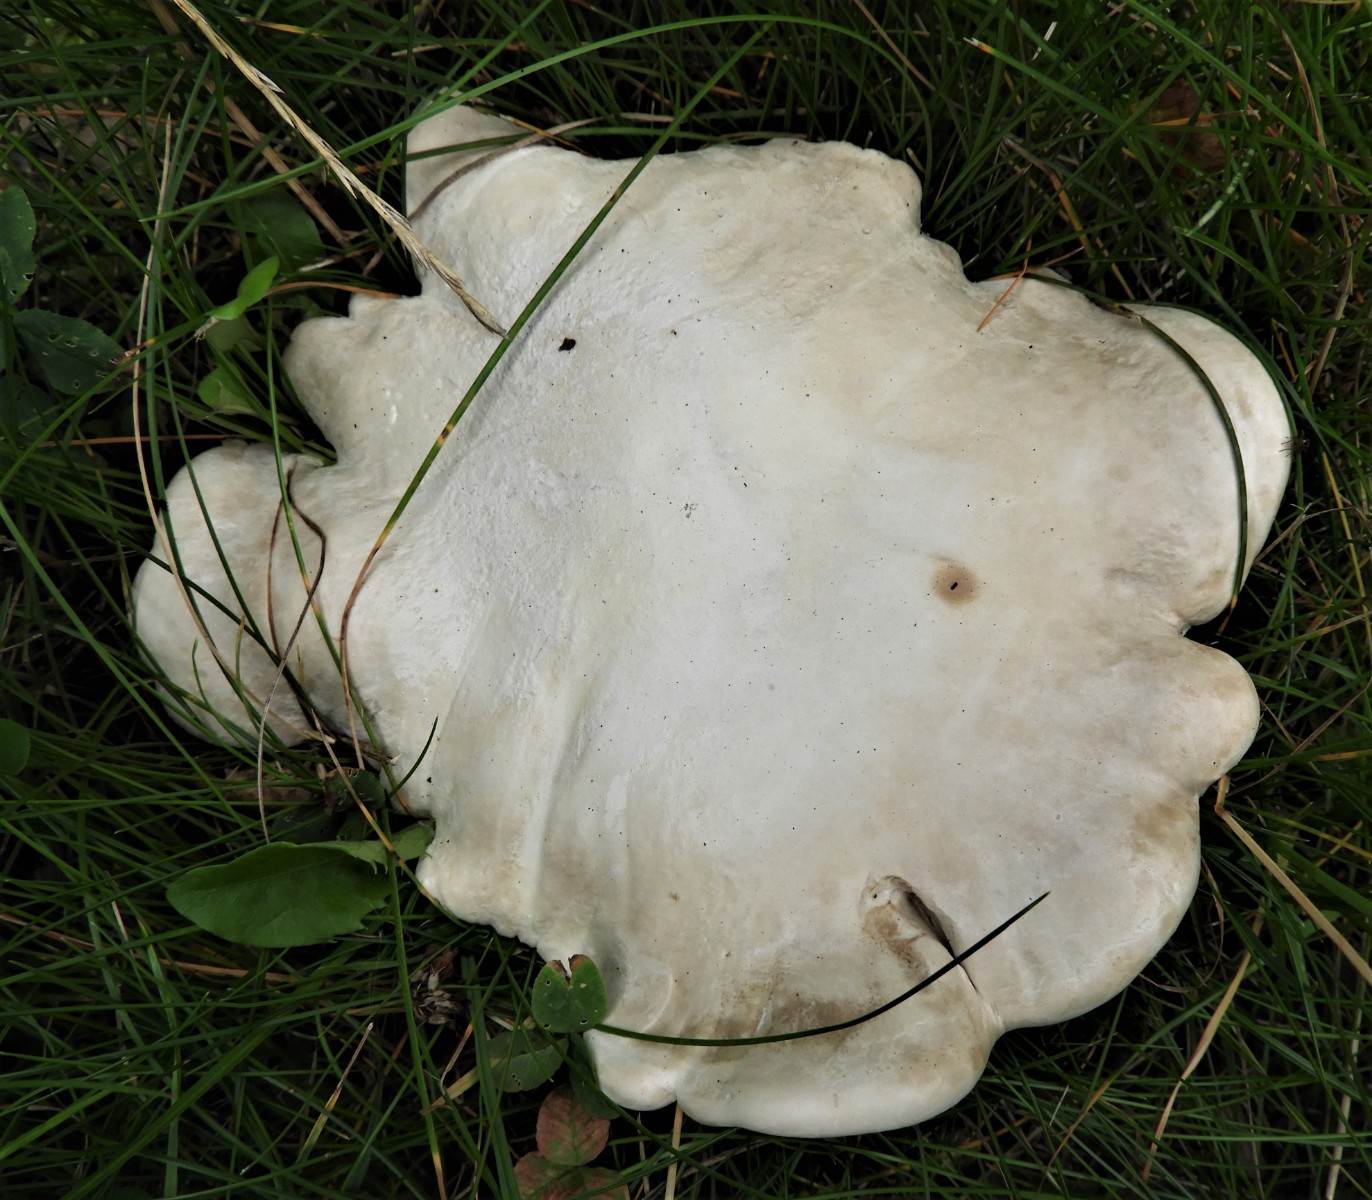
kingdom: Fungi
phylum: Basidiomycota
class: Agaricomycetes
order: Agaricales
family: Entolomataceae
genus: Clitopilus
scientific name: Clitopilus prunulus
